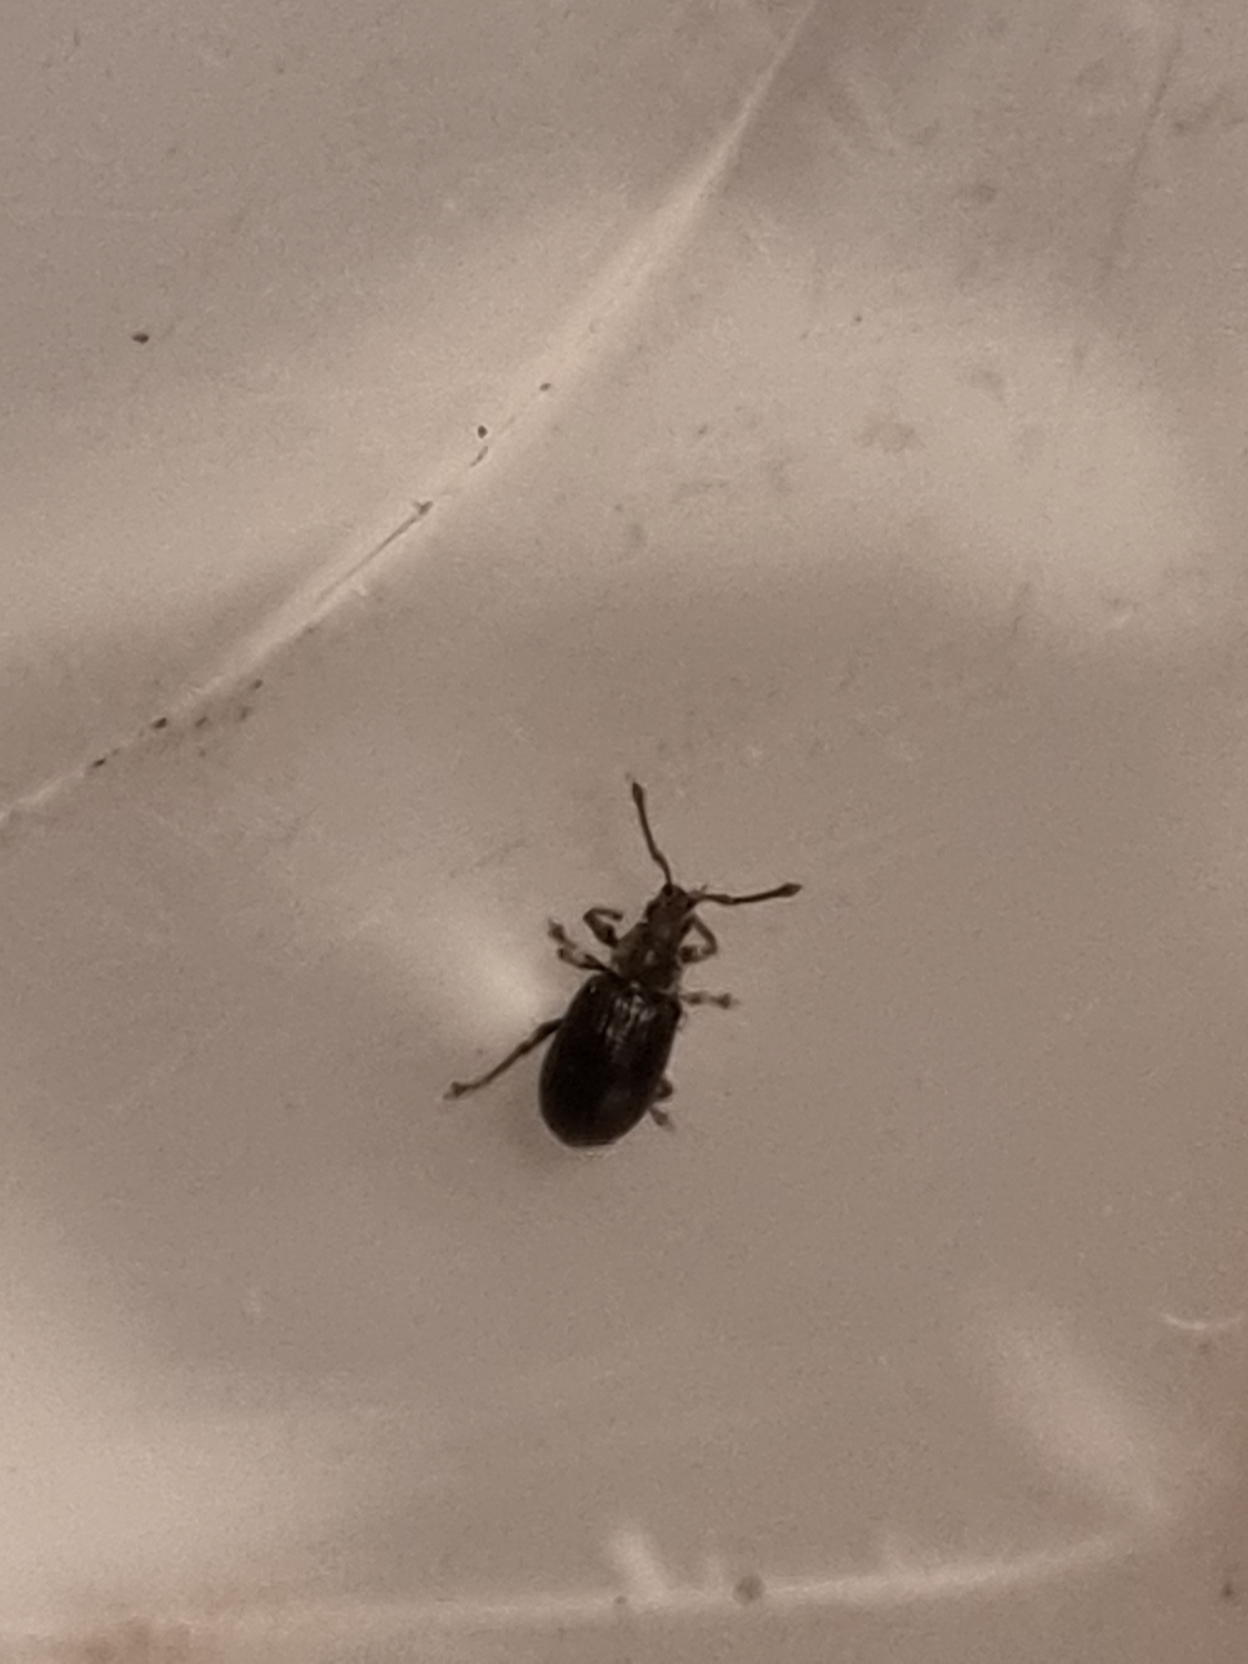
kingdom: Animalia
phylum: Arthropoda
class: Insecta
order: Coleoptera
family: Curculionidae
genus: Phyllobius
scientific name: Phyllobius viridicollis
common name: Lille løvsnudebille
